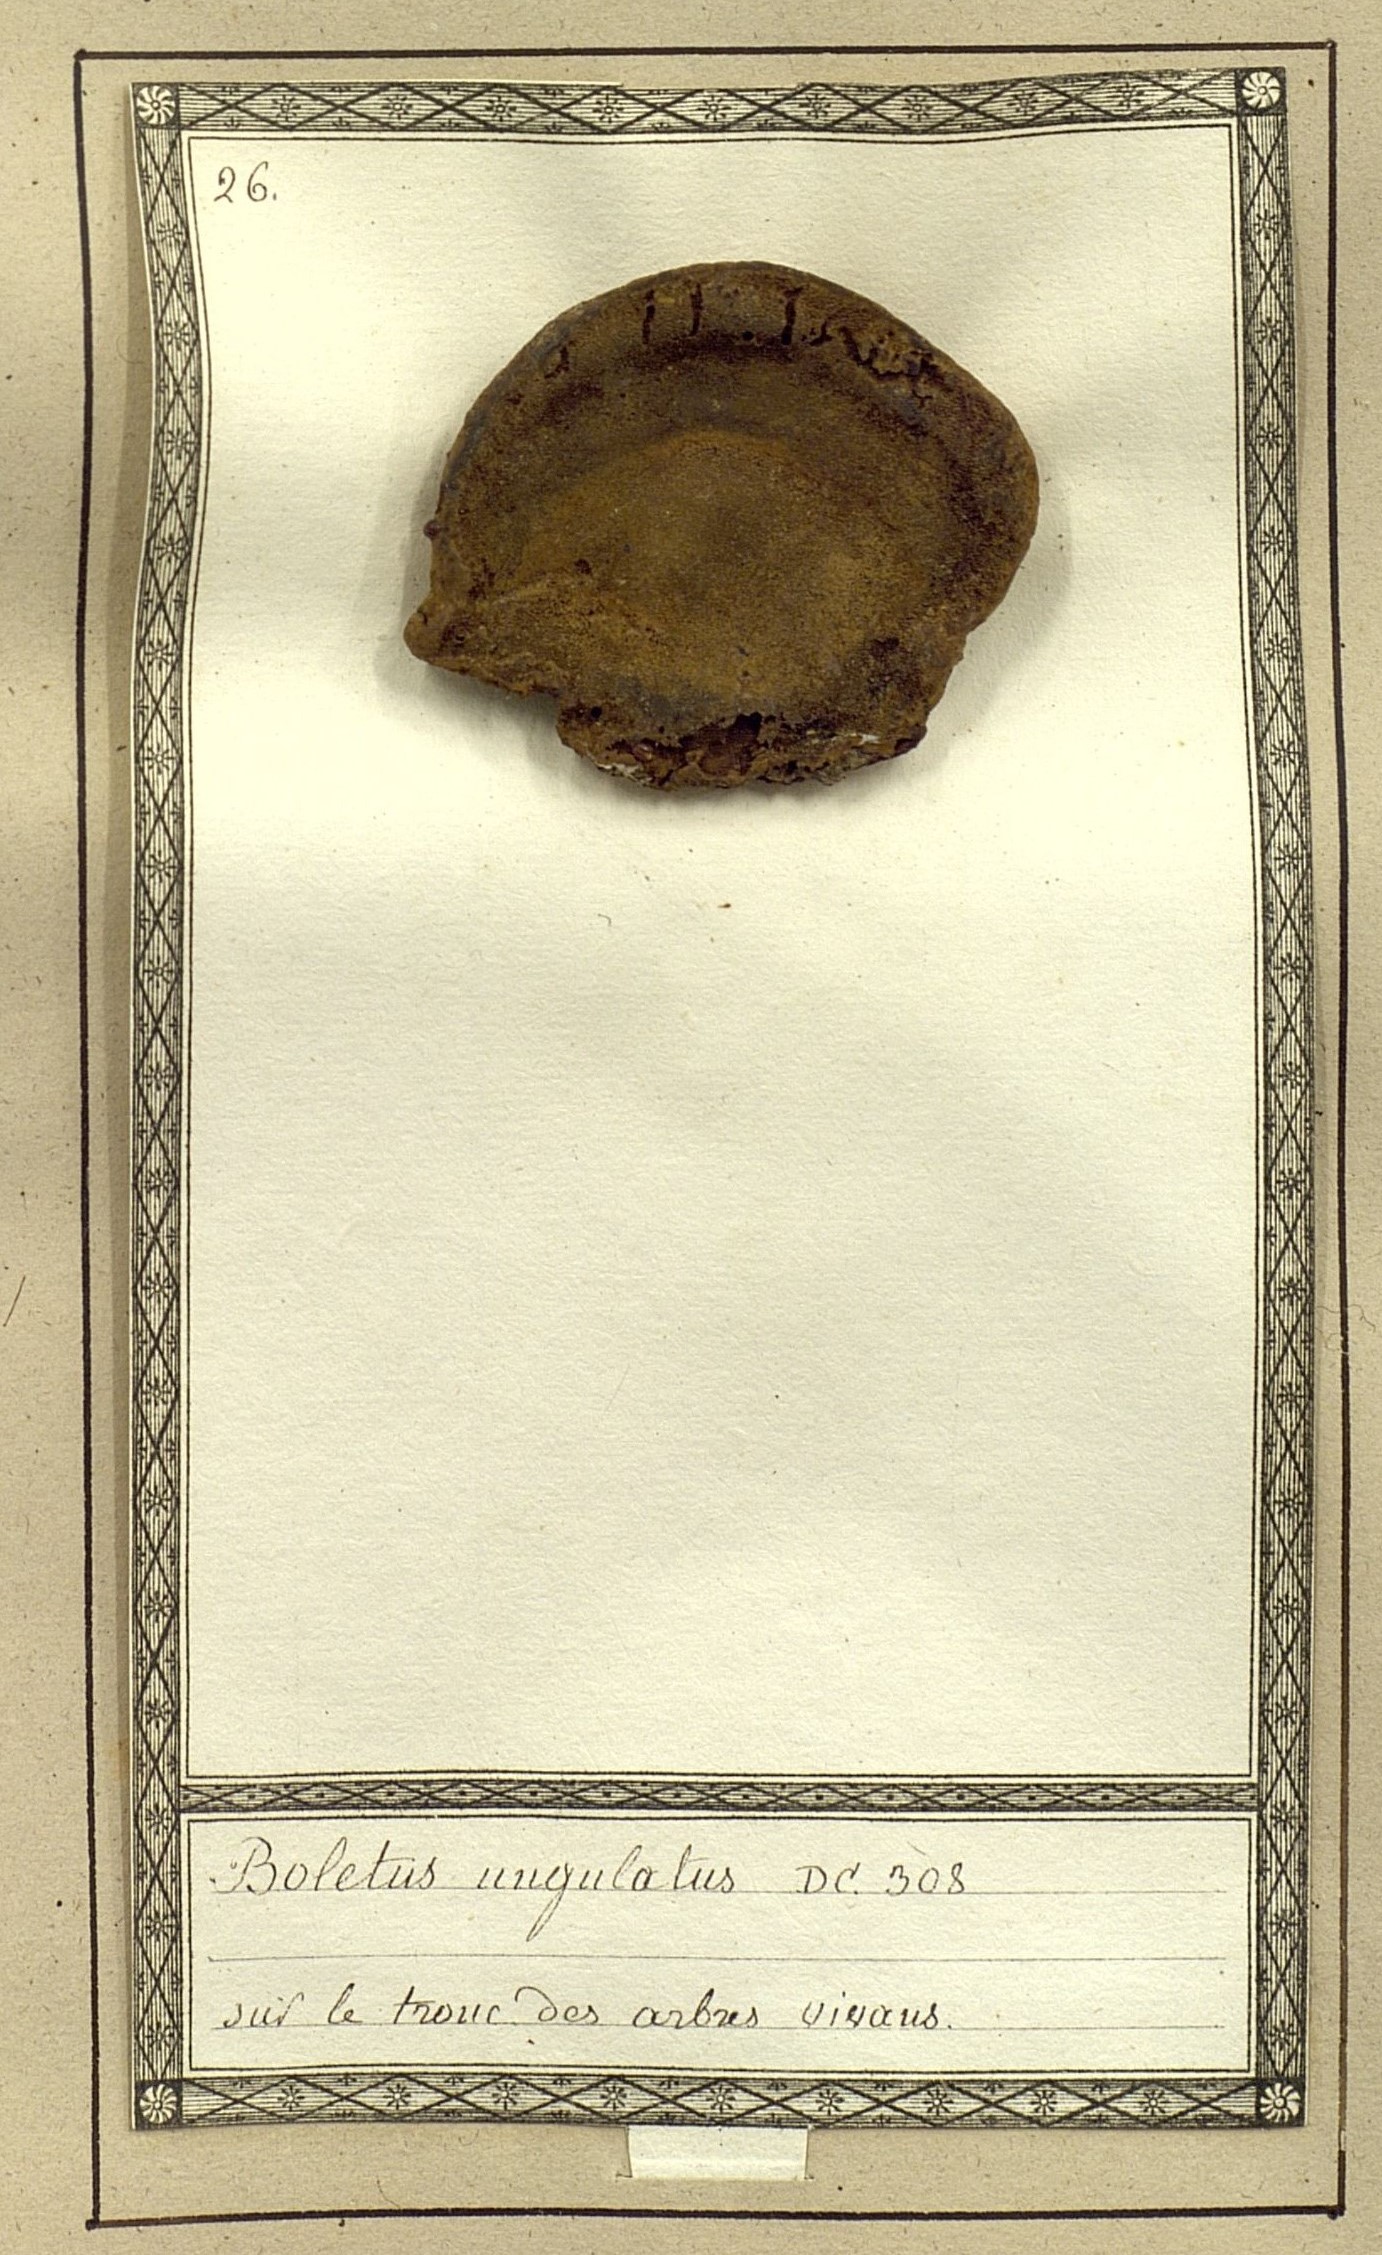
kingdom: Fungi
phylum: Basidiomycota
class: Agaricomycetes
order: Polyporales
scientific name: Polyporales
